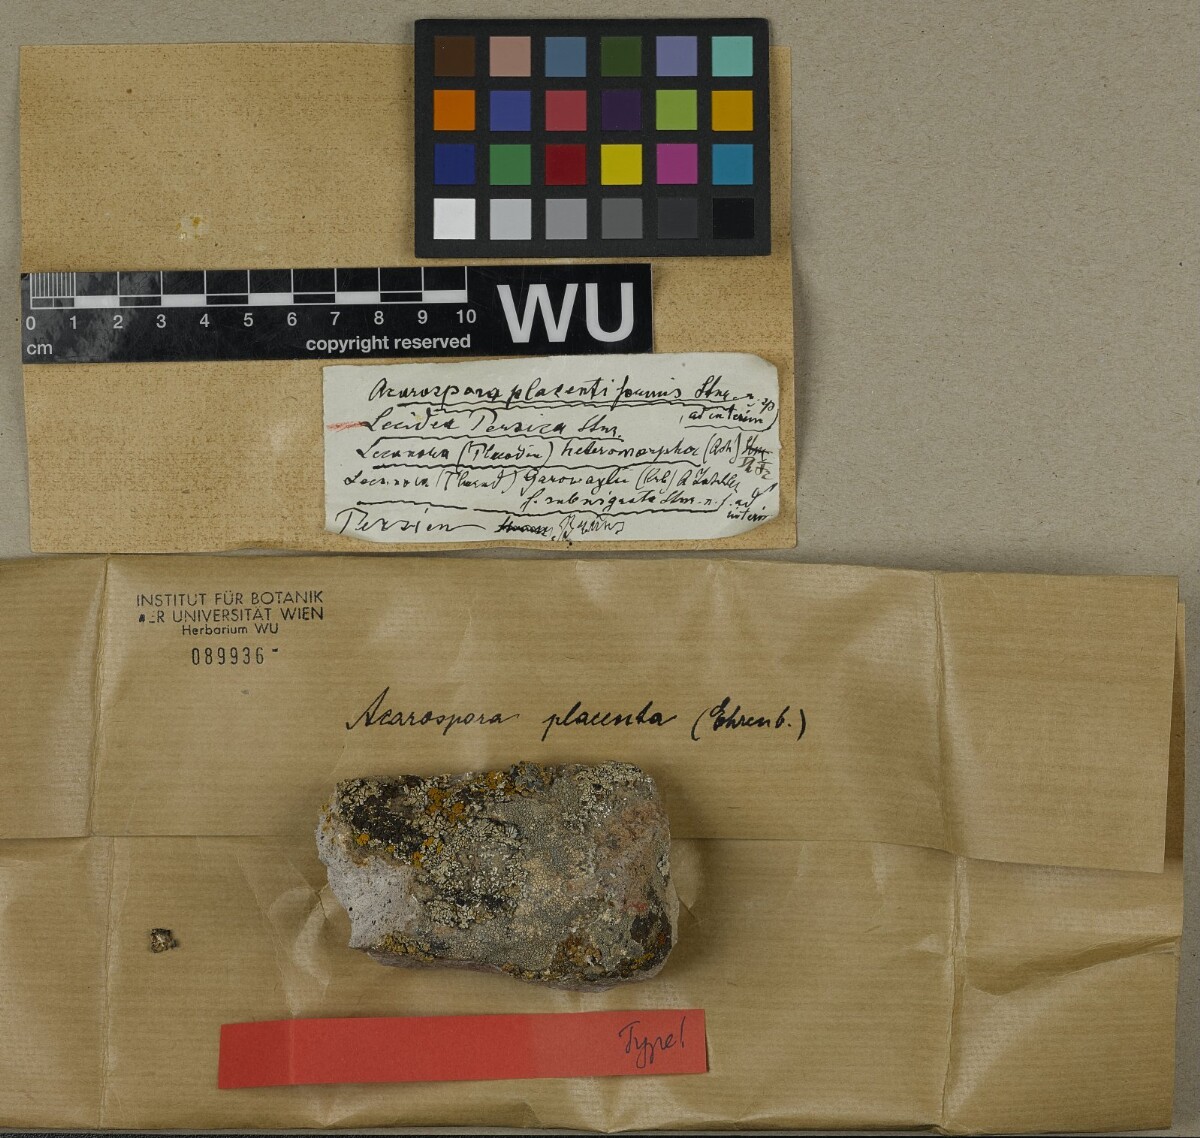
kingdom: Fungi
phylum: Ascomycota
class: Lecanoromycetes
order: Acarosporales
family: Acarosporaceae
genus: Acarospora
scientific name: Acarospora
